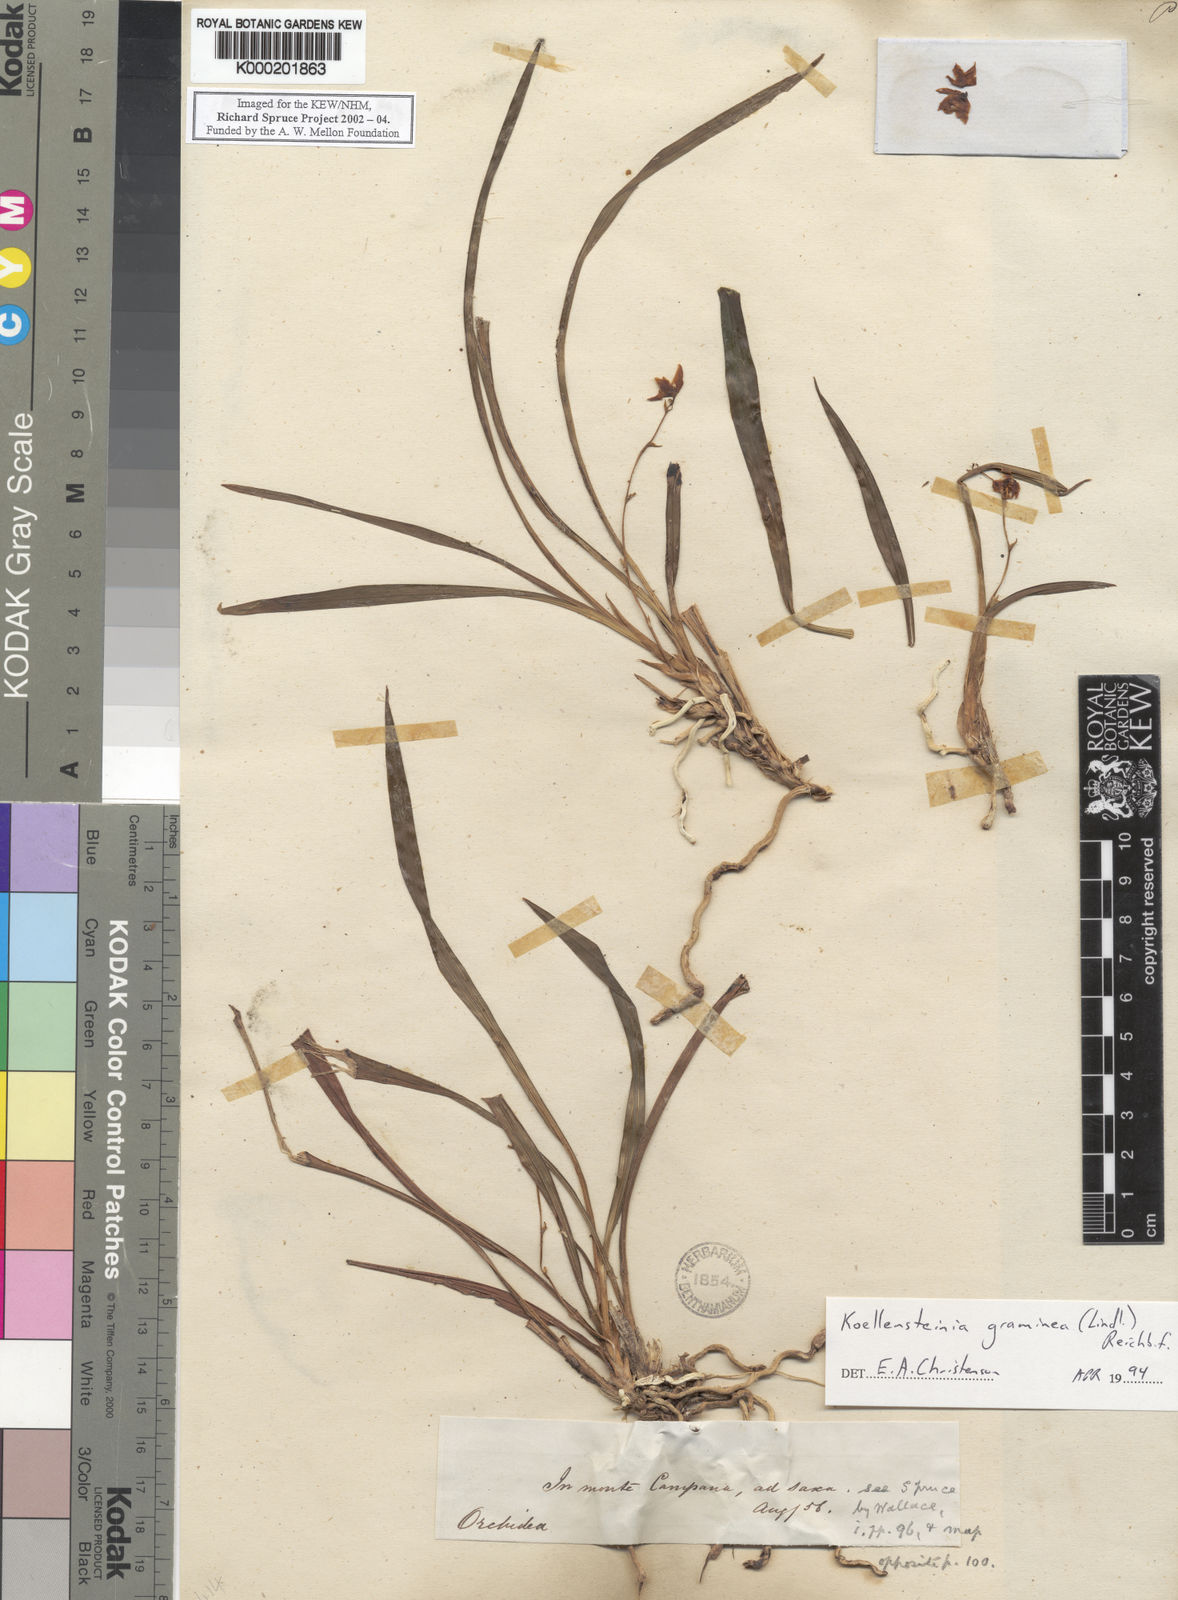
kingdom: Plantae
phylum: Tracheophyta
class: Liliopsida
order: Asparagales
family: Orchidaceae
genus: Koellensteinia
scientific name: Koellensteinia graminea
